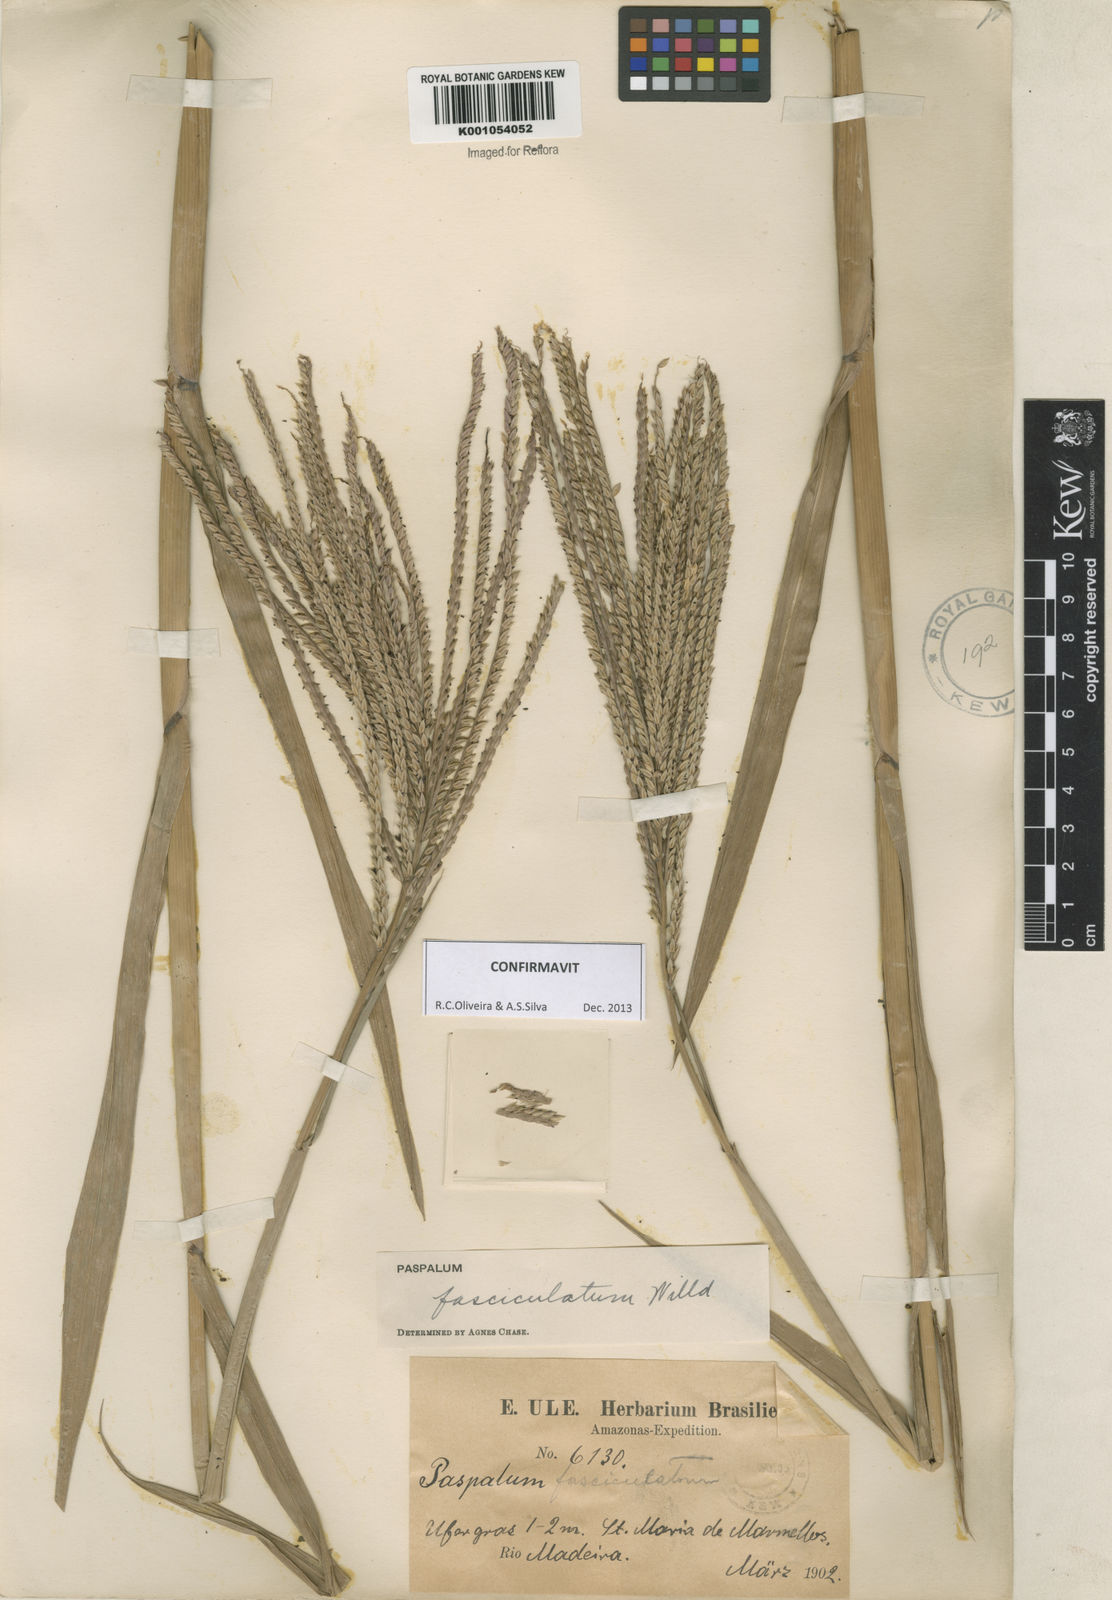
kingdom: Plantae
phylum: Tracheophyta
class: Liliopsida
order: Poales
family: Poaceae
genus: Paspalum
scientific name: Paspalum
